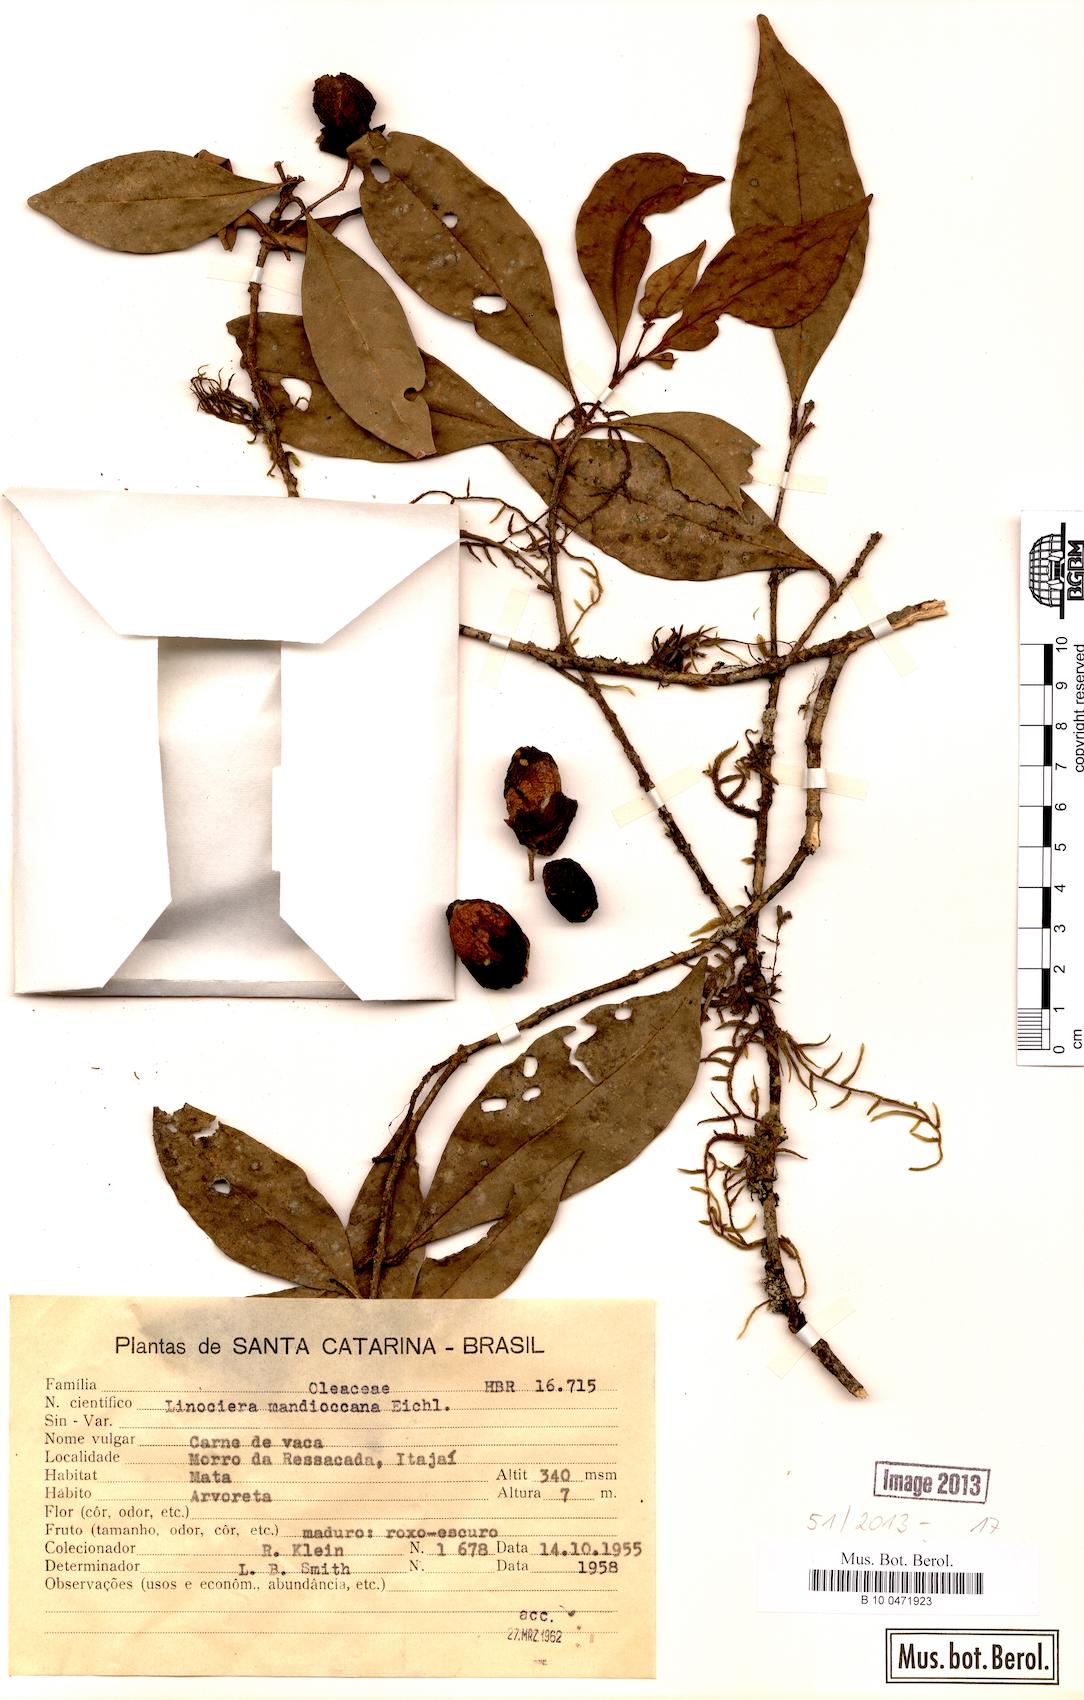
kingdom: Plantae
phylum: Tracheophyta
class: Magnoliopsida
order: Lamiales
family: Oleaceae
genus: Chionanthus
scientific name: Chionanthus filiformis
